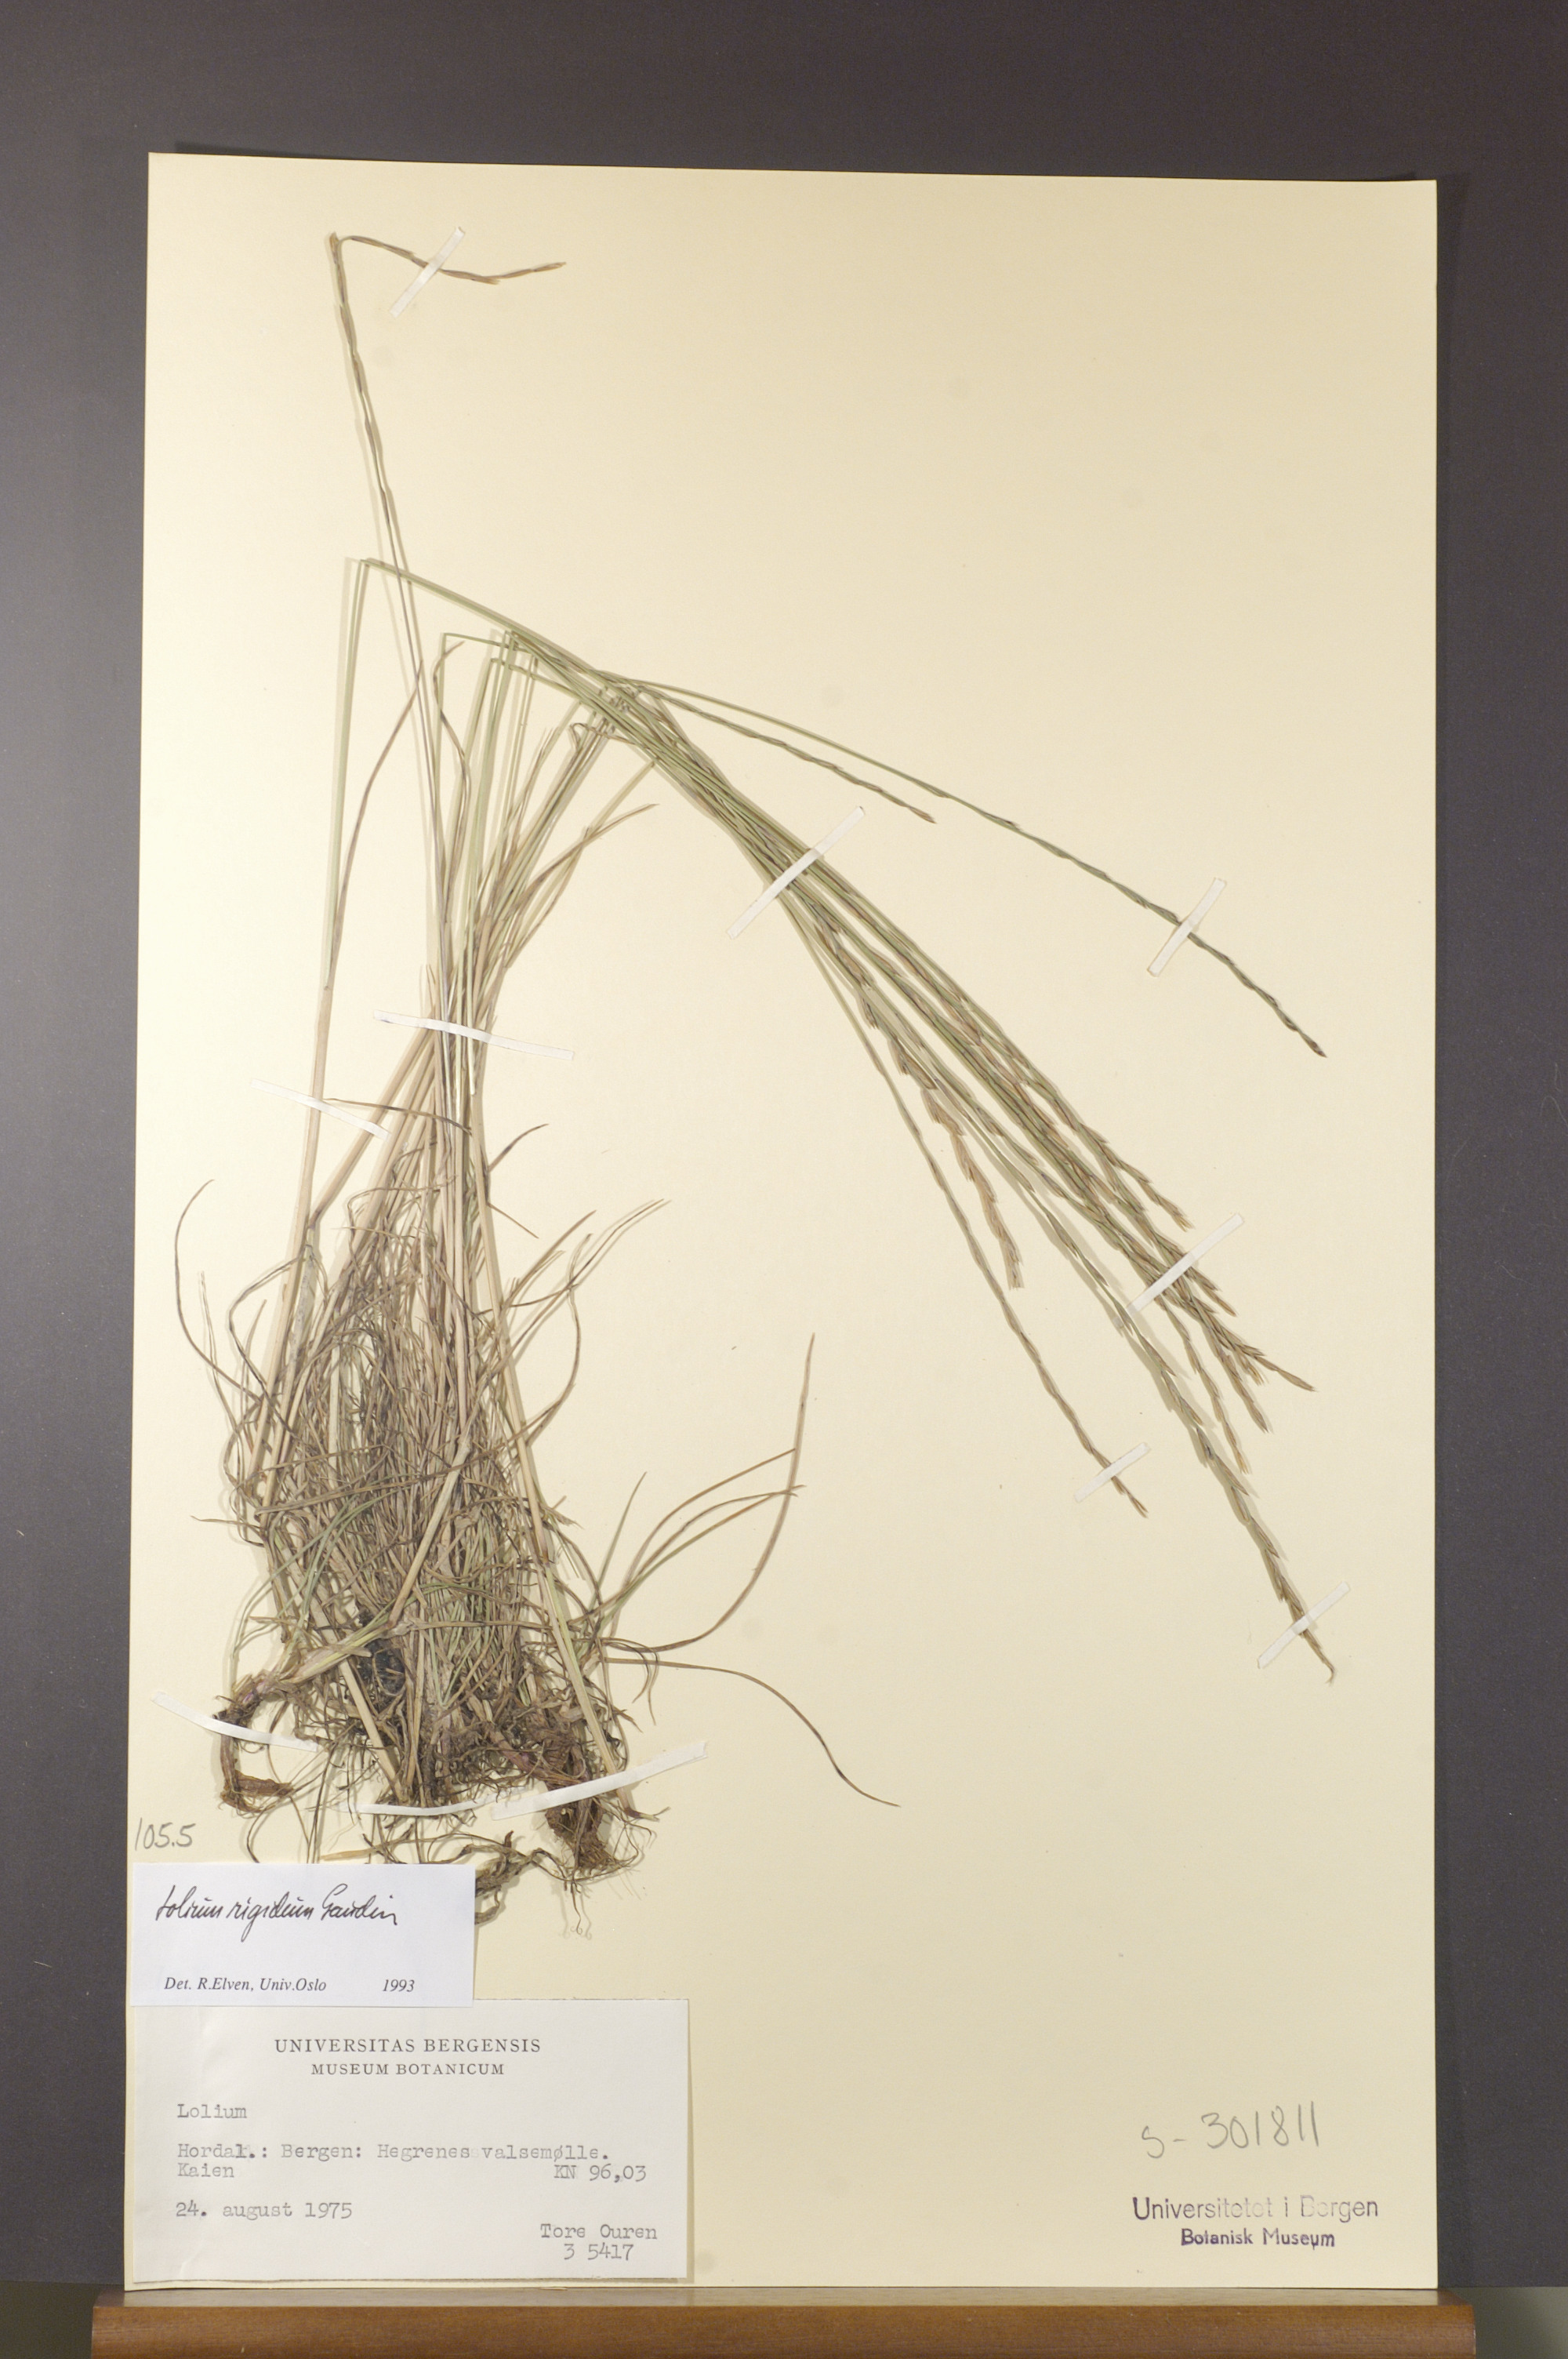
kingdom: Plantae
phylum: Tracheophyta
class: Liliopsida
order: Poales
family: Poaceae
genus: Lolium
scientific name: Lolium rigidum
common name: Wimmera ryegrass
